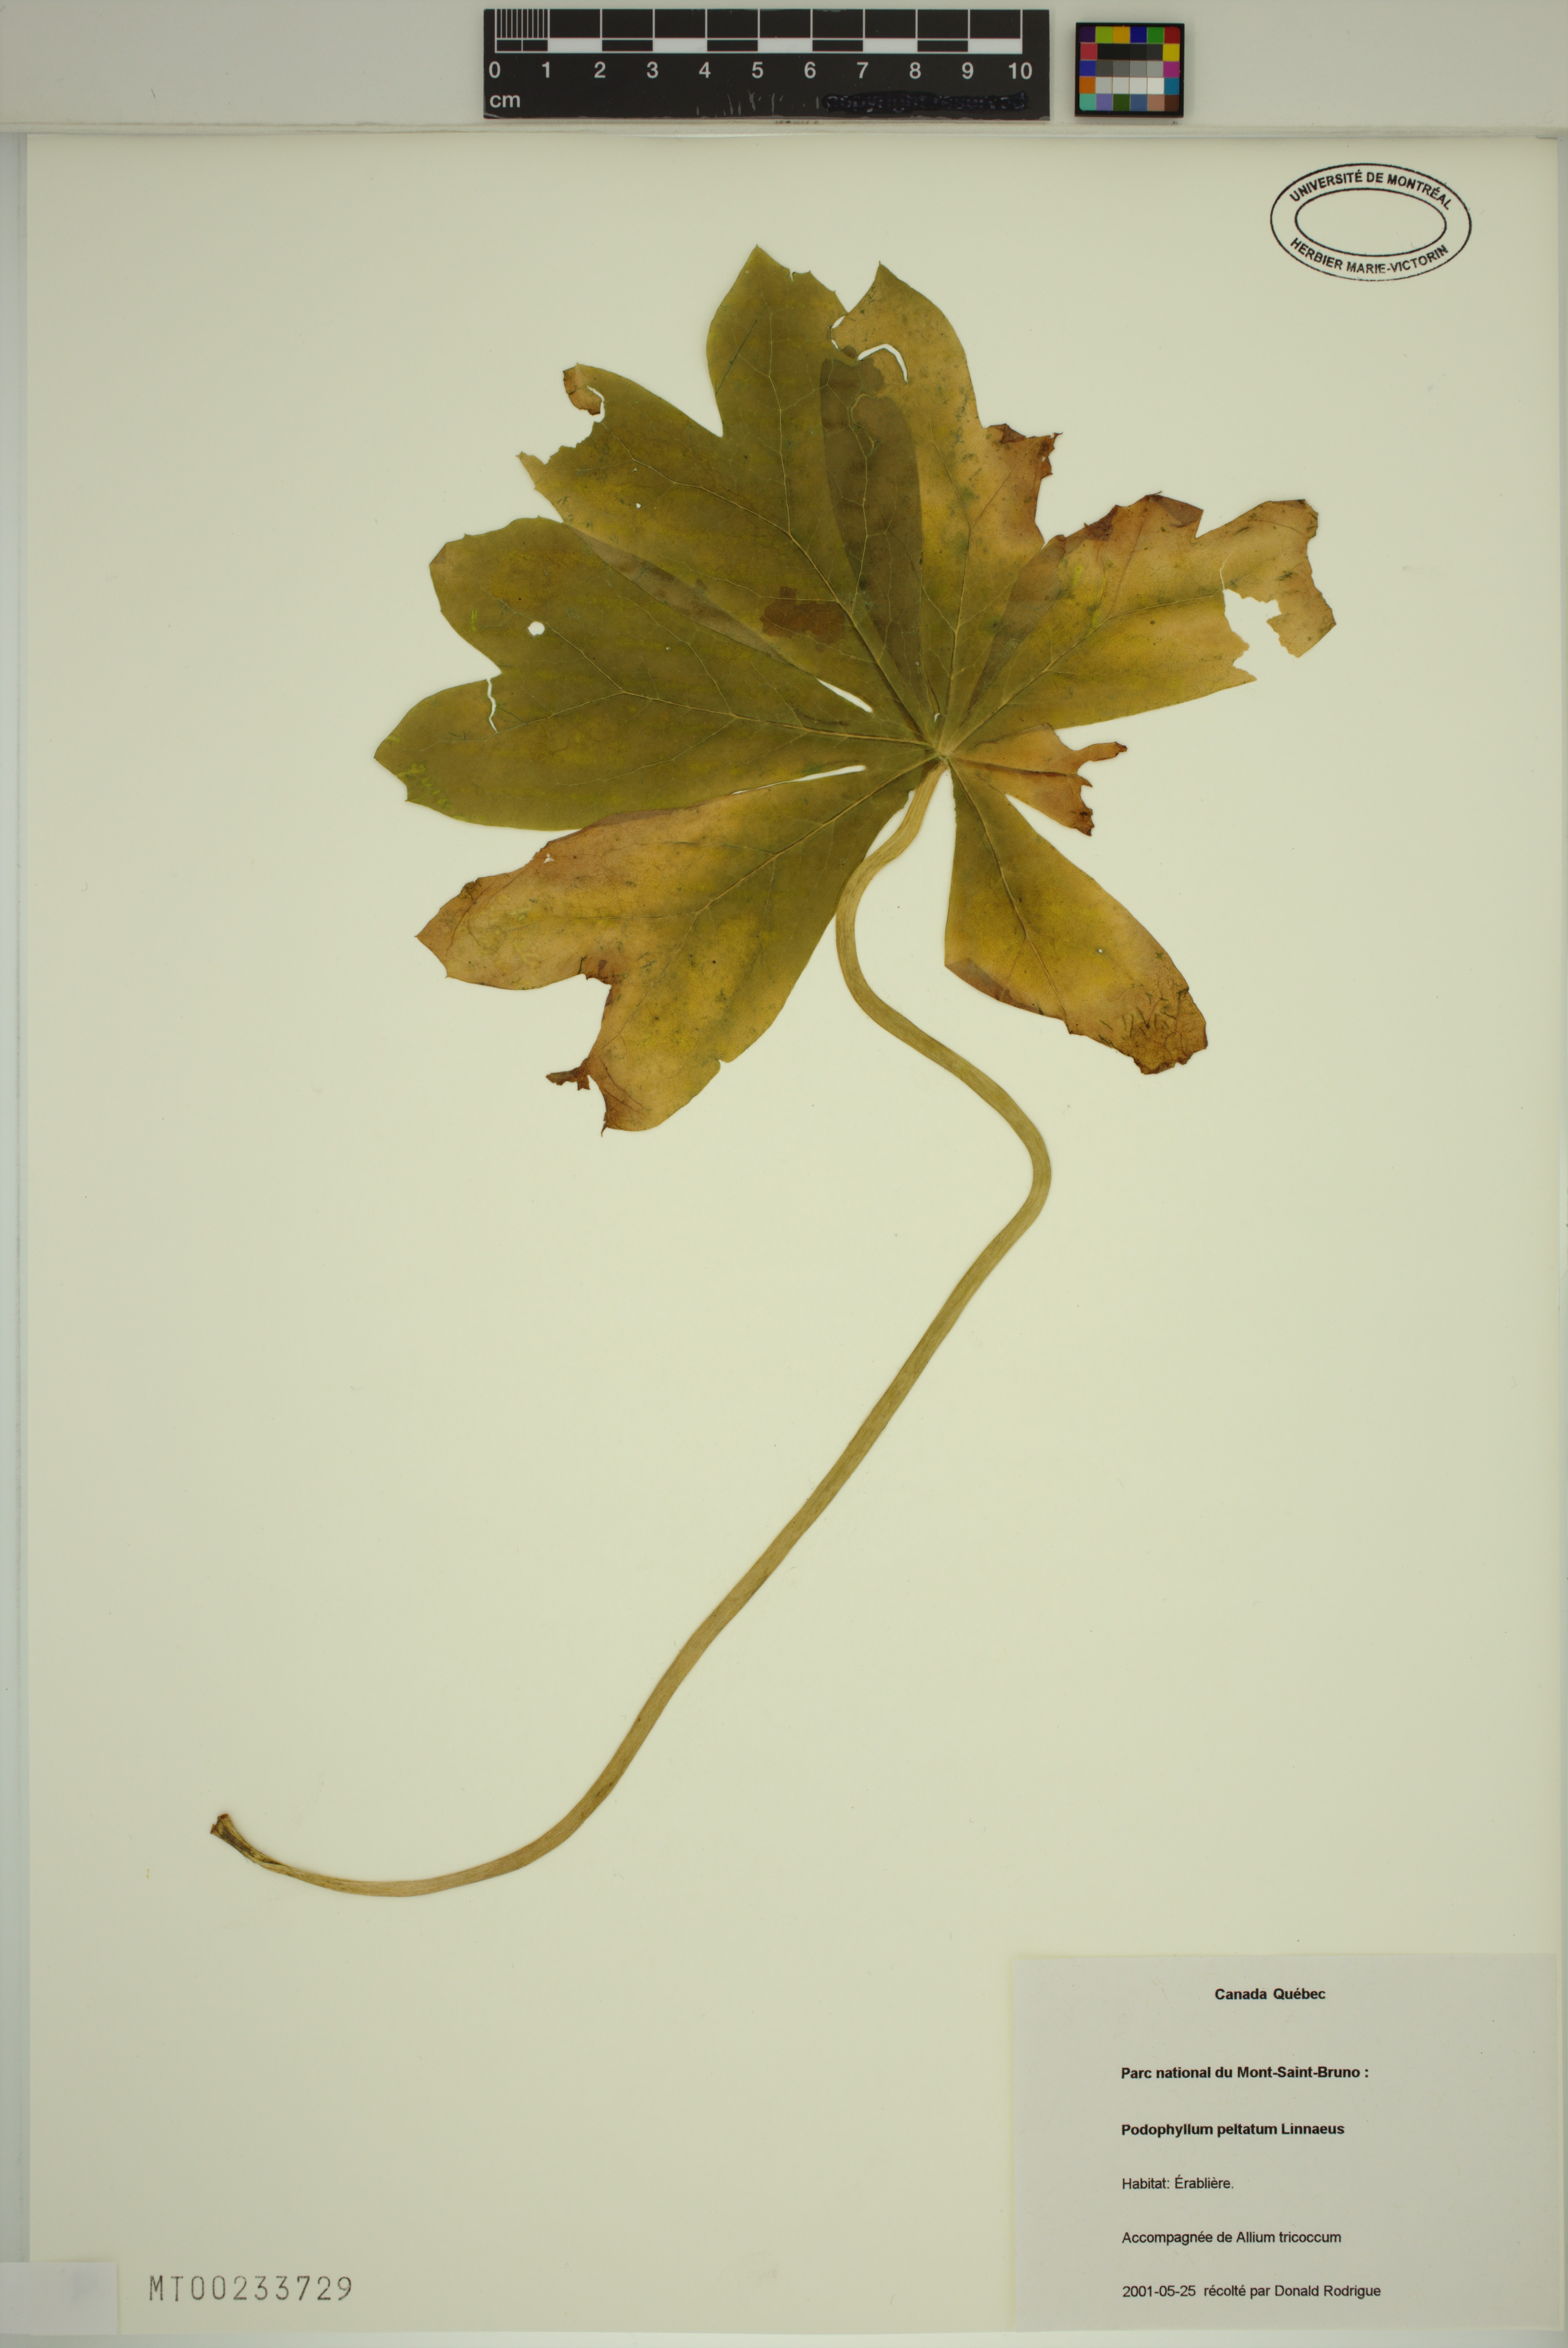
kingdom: Plantae
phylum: Tracheophyta
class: Magnoliopsida
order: Ranunculales
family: Berberidaceae
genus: Podophyllum
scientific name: Podophyllum peltatum
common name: Wild mandrake
